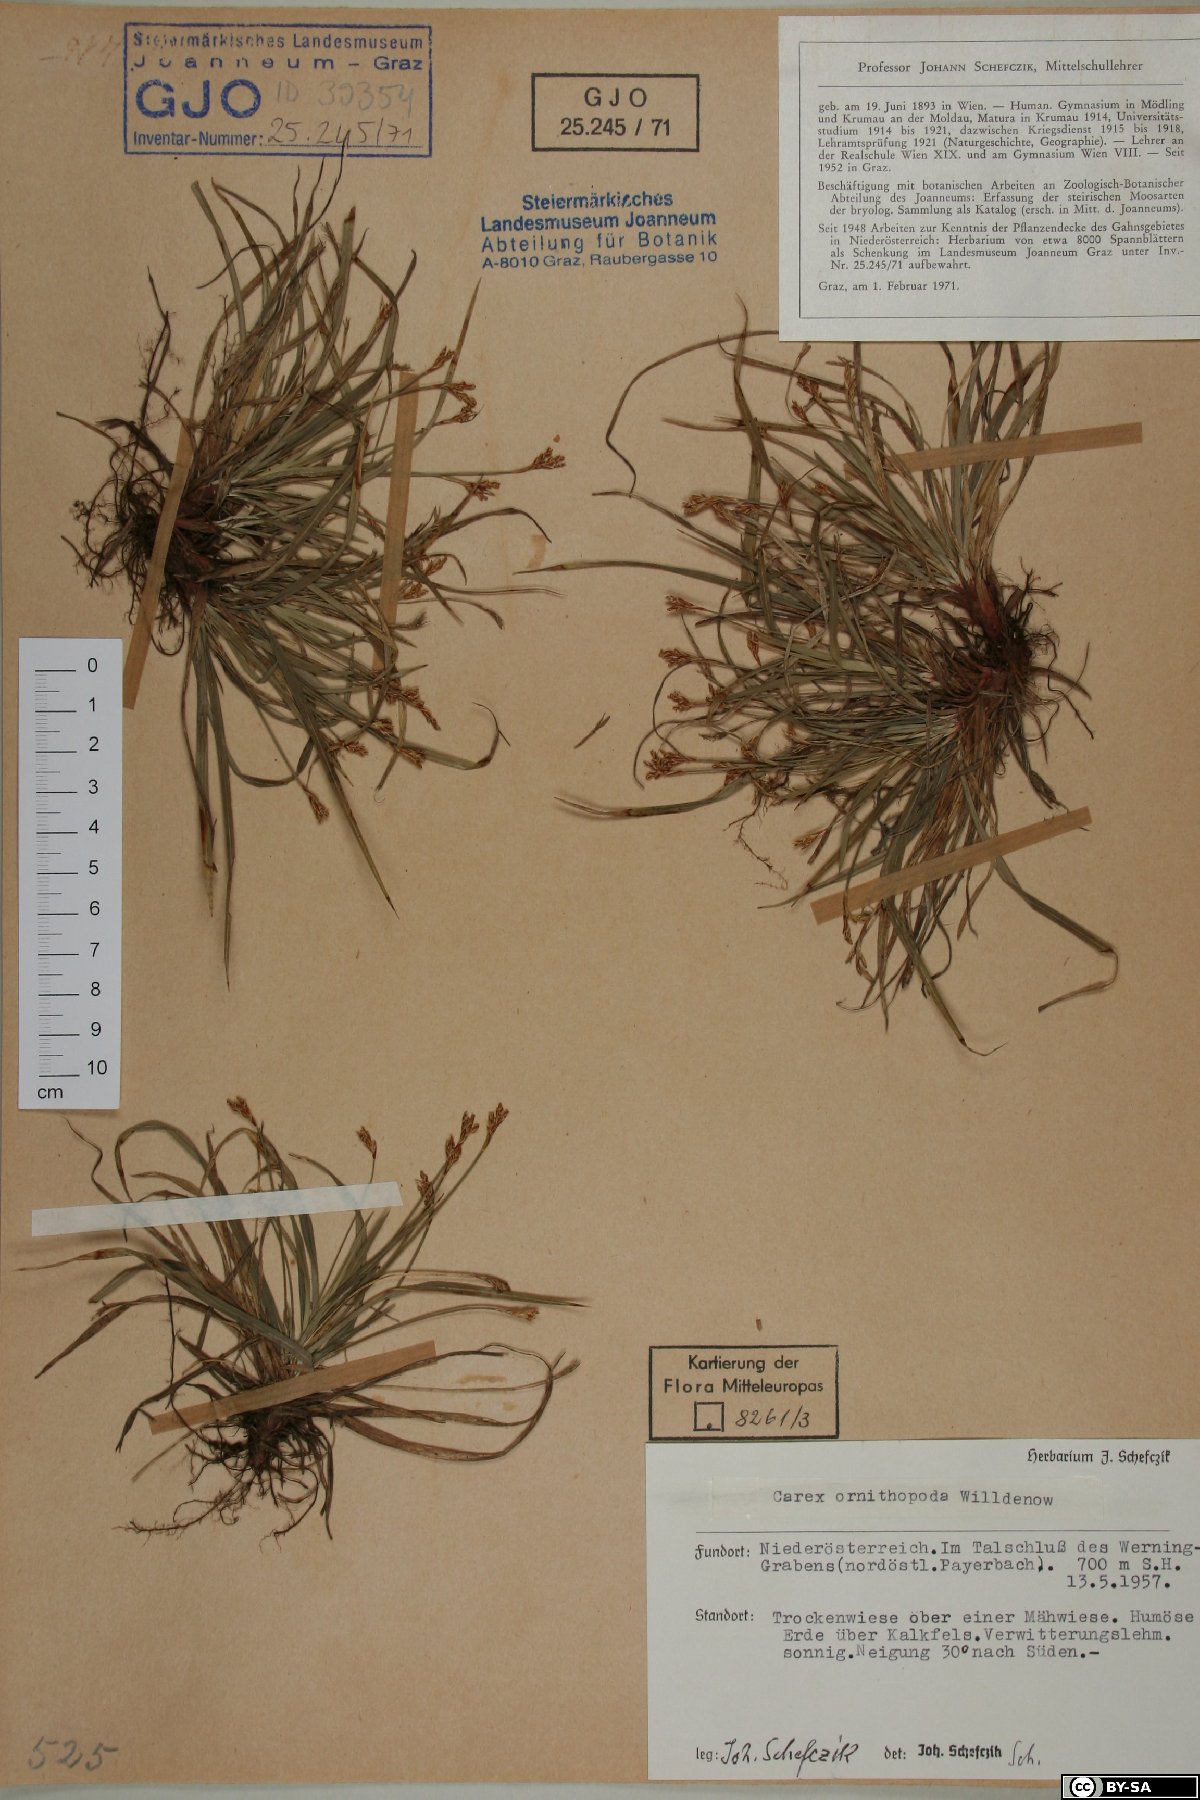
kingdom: Plantae
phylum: Tracheophyta
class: Liliopsida
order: Poales
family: Cyperaceae
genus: Carex
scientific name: Carex ornithopoda
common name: Bird's-foot sedge
